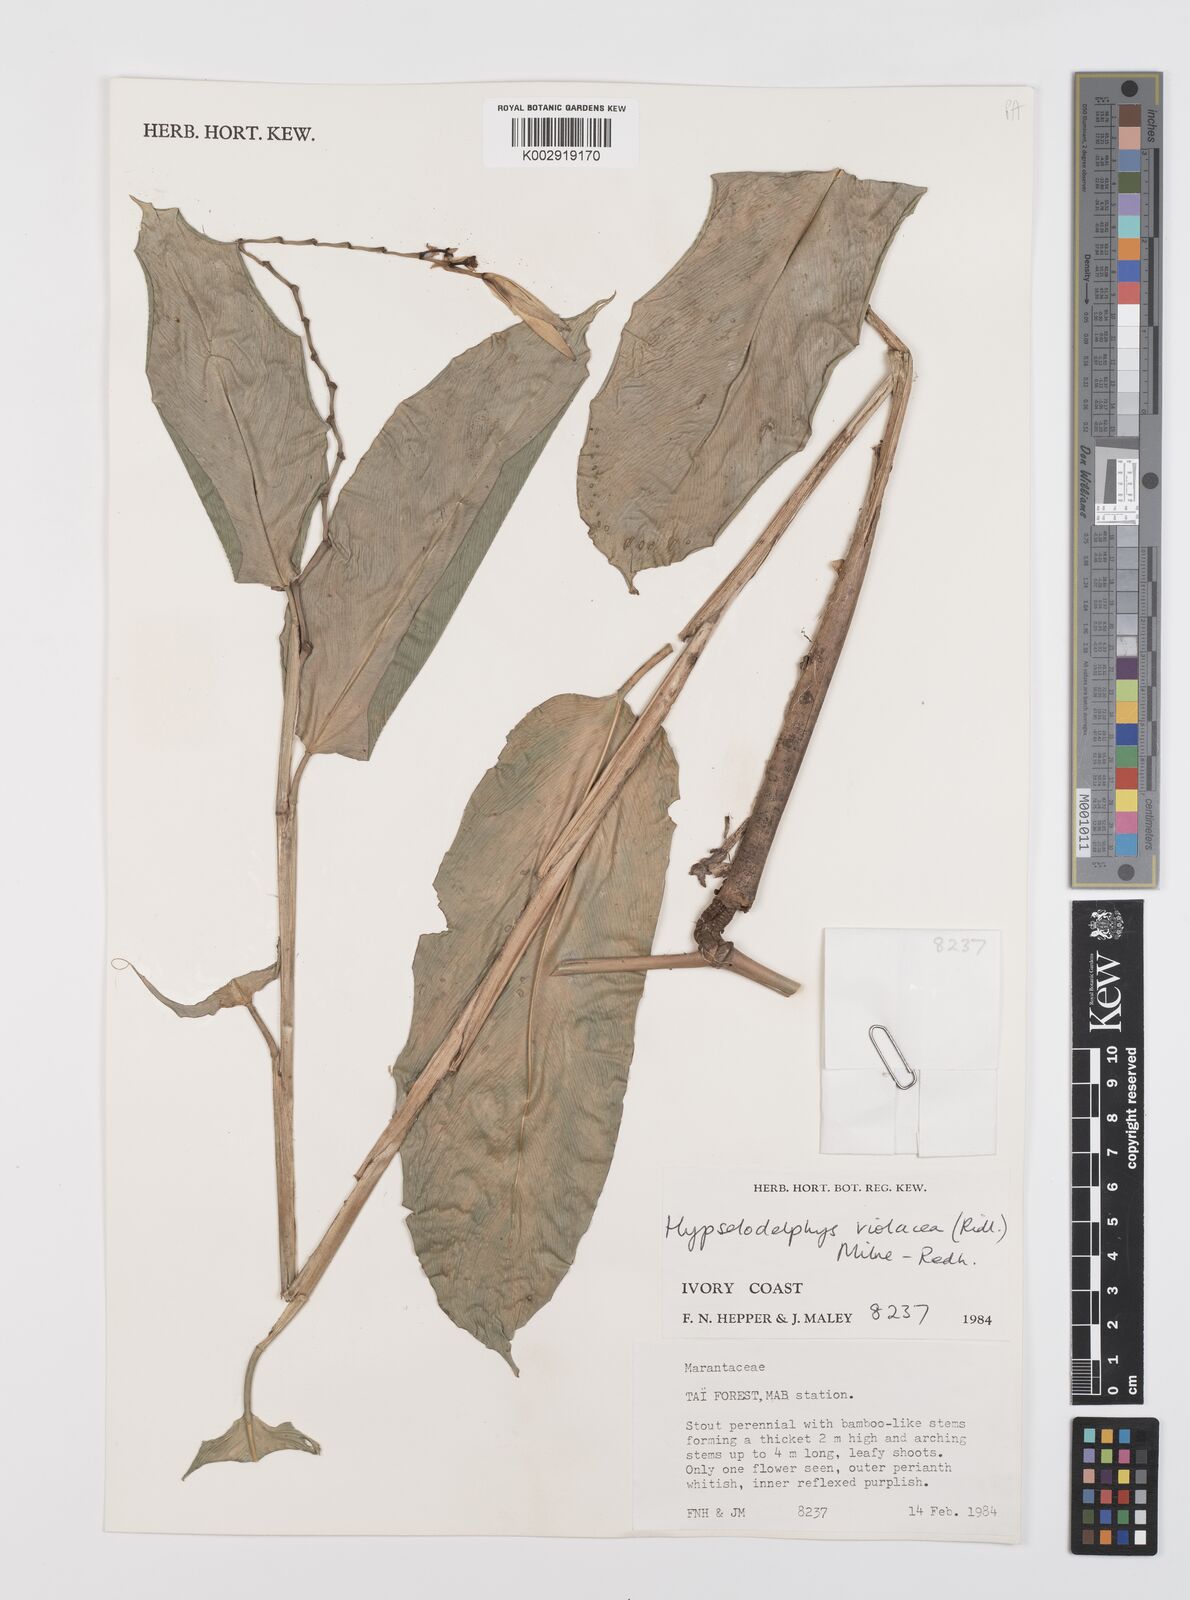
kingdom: Plantae
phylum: Tracheophyta
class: Liliopsida
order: Zingiberales
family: Marantaceae
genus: Hypselodelphys
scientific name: Hypselodelphys violacea
